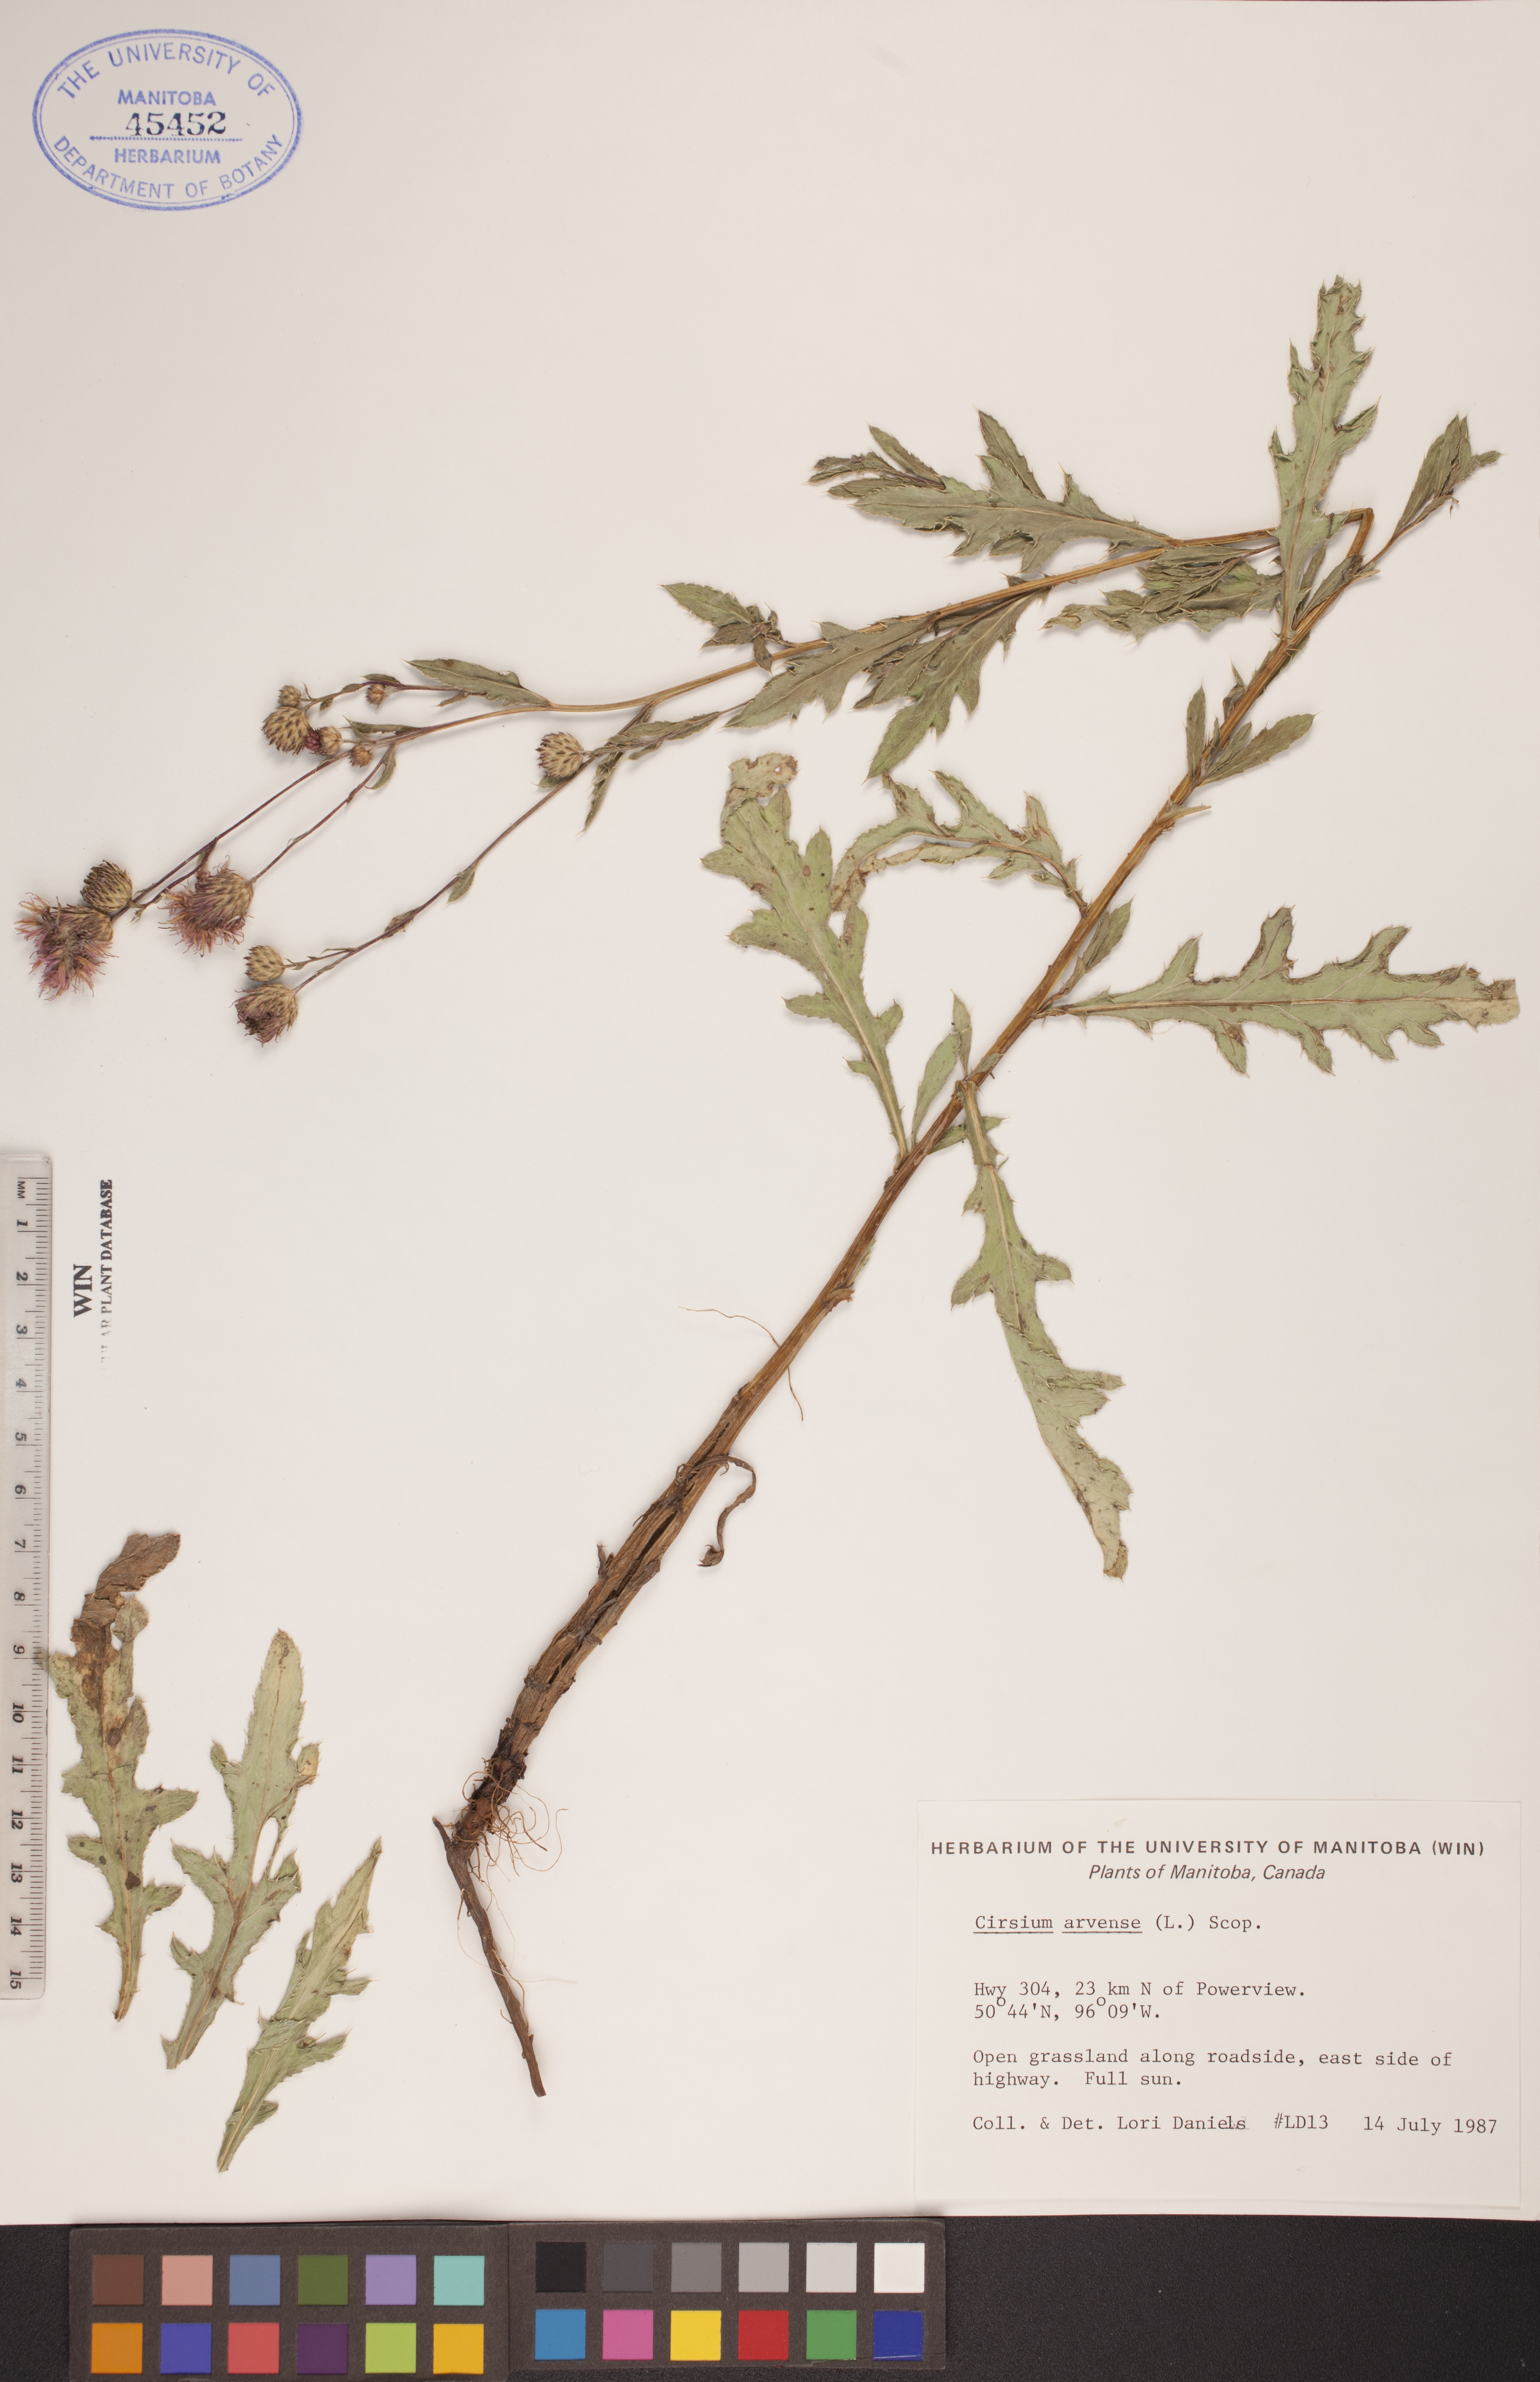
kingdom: Plantae
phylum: Tracheophyta
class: Magnoliopsida
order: Asterales
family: Asteraceae
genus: Cirsium
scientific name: Cirsium arvense
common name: Creeping thistle
